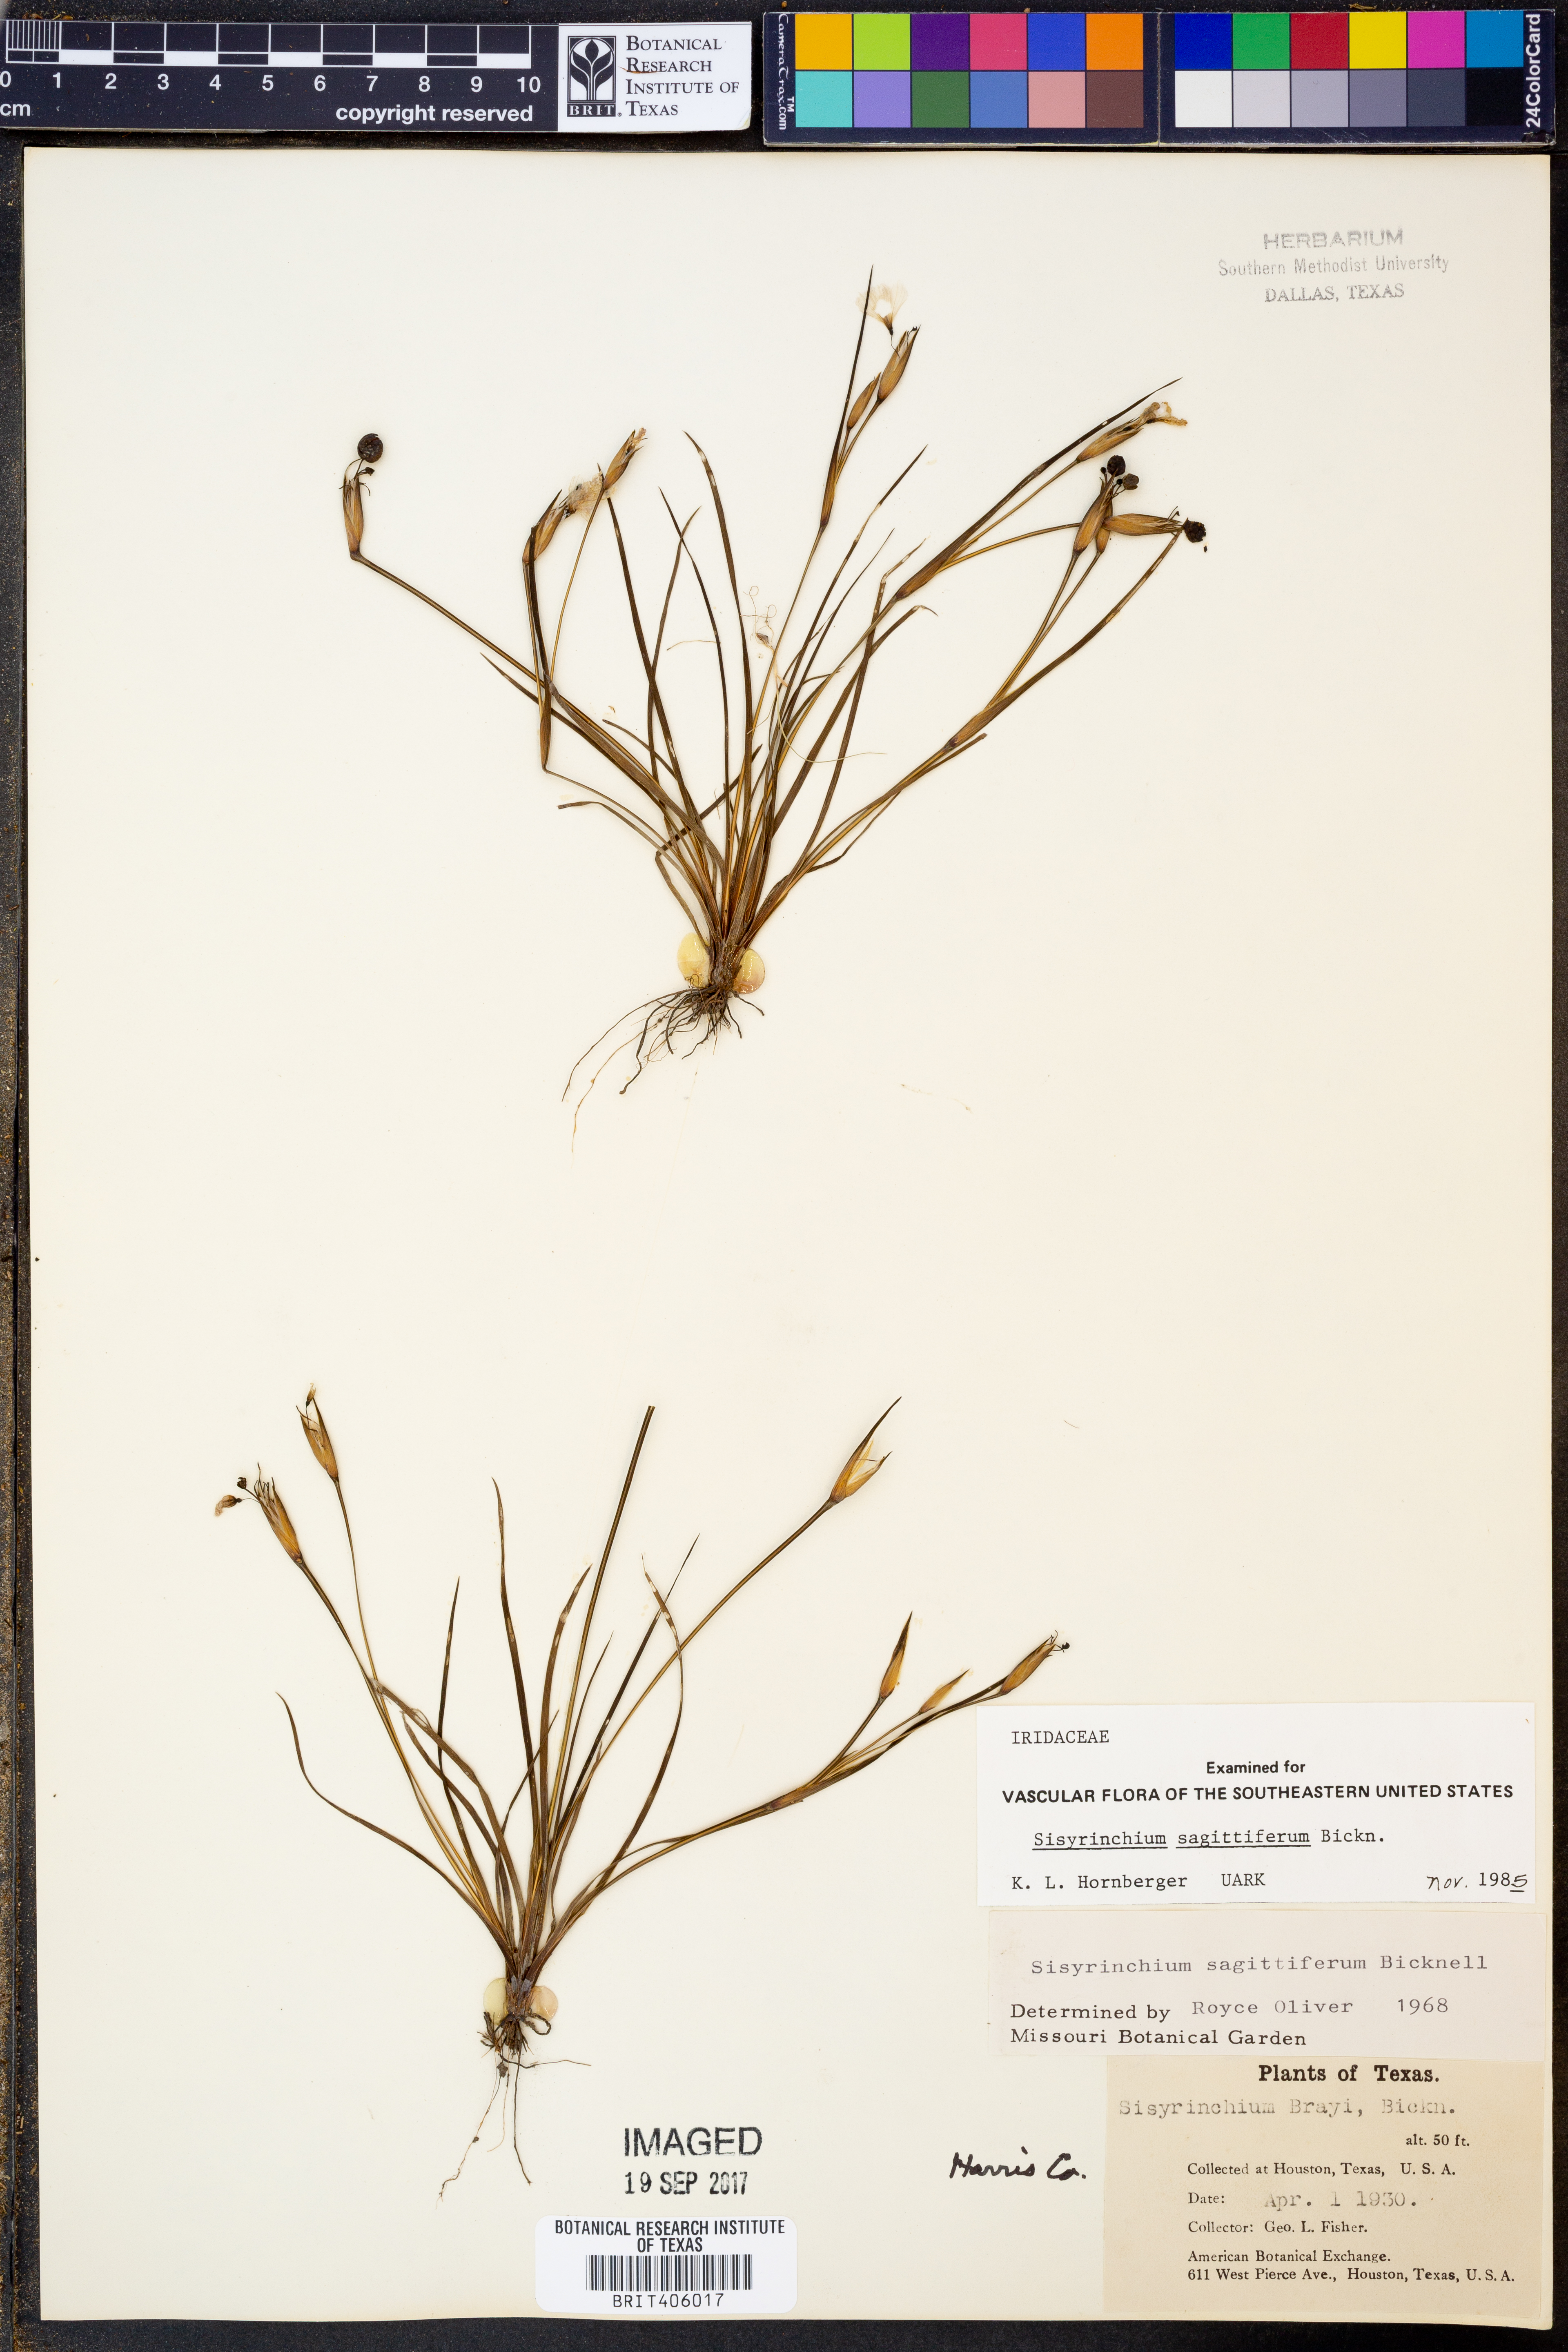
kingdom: Plantae
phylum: Tracheophyta
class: Liliopsida
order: Asparagales
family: Iridaceae
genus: Sisyrinchium
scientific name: Sisyrinchium sagittiferum
